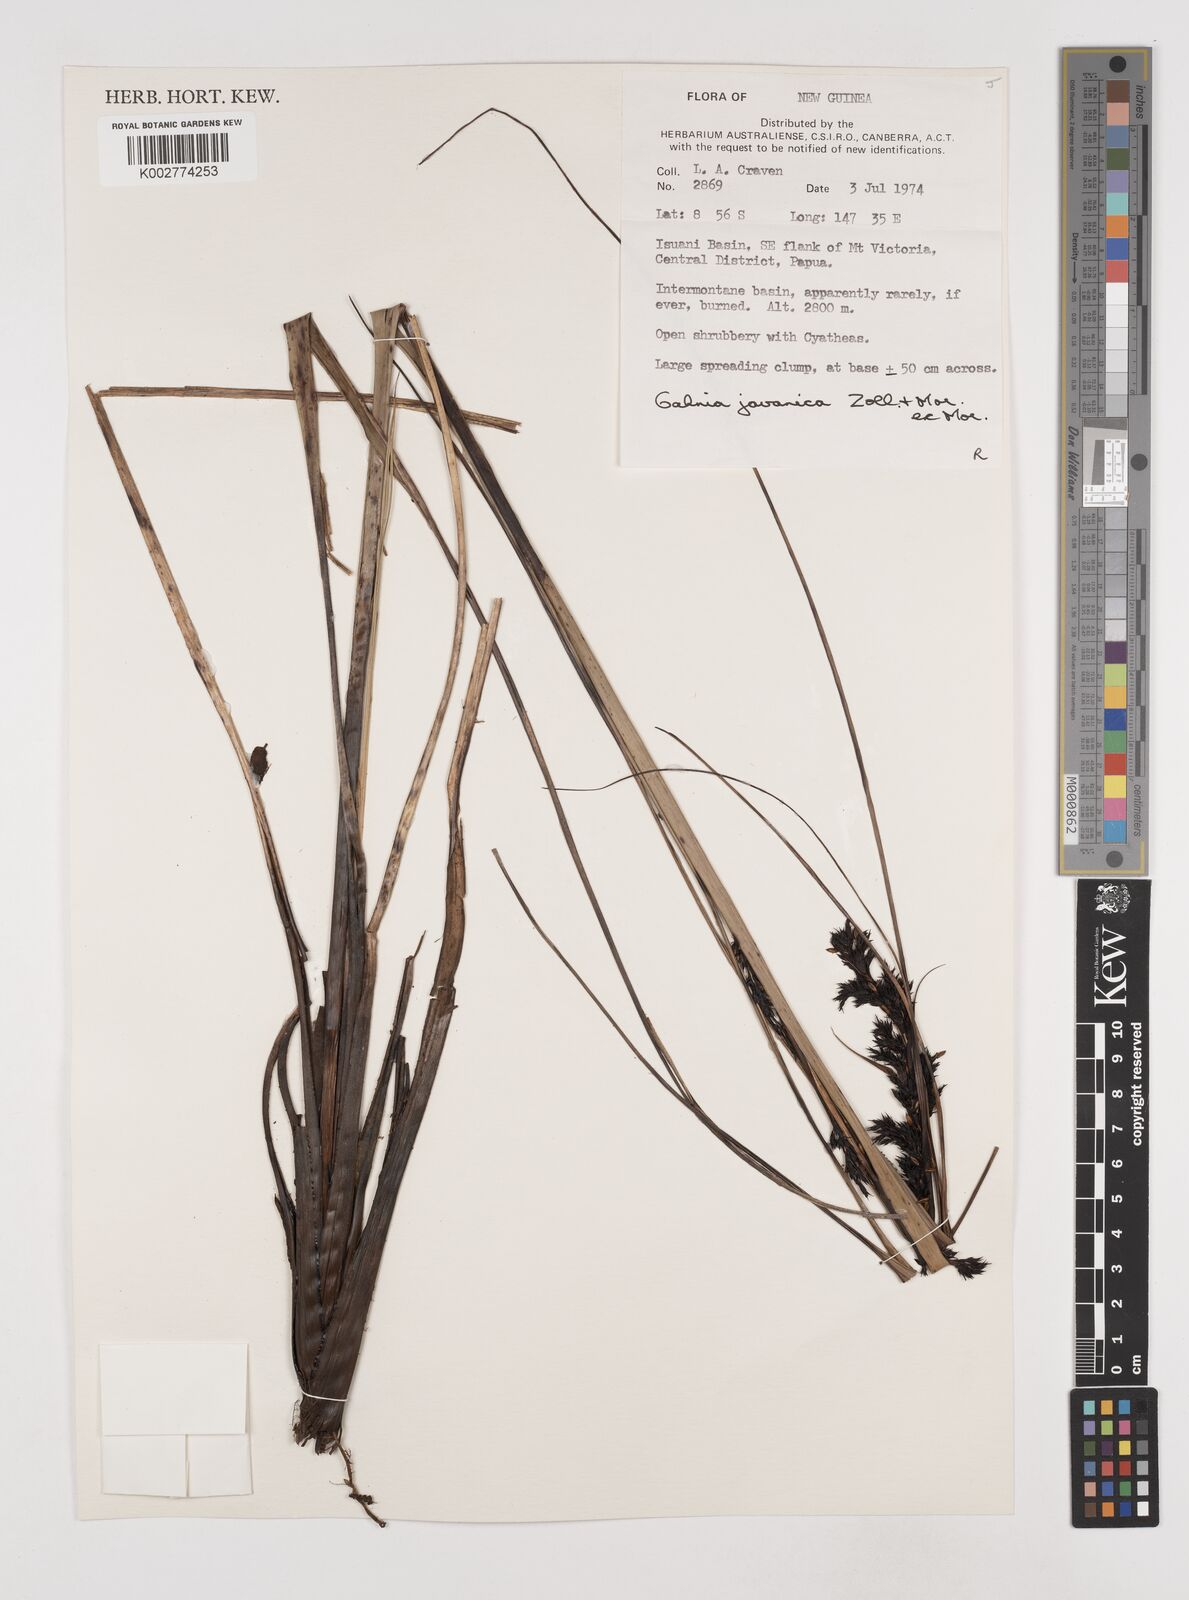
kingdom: Plantae
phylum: Tracheophyta
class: Liliopsida
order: Poales
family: Cyperaceae
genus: Gahnia
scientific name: Gahnia javanica
